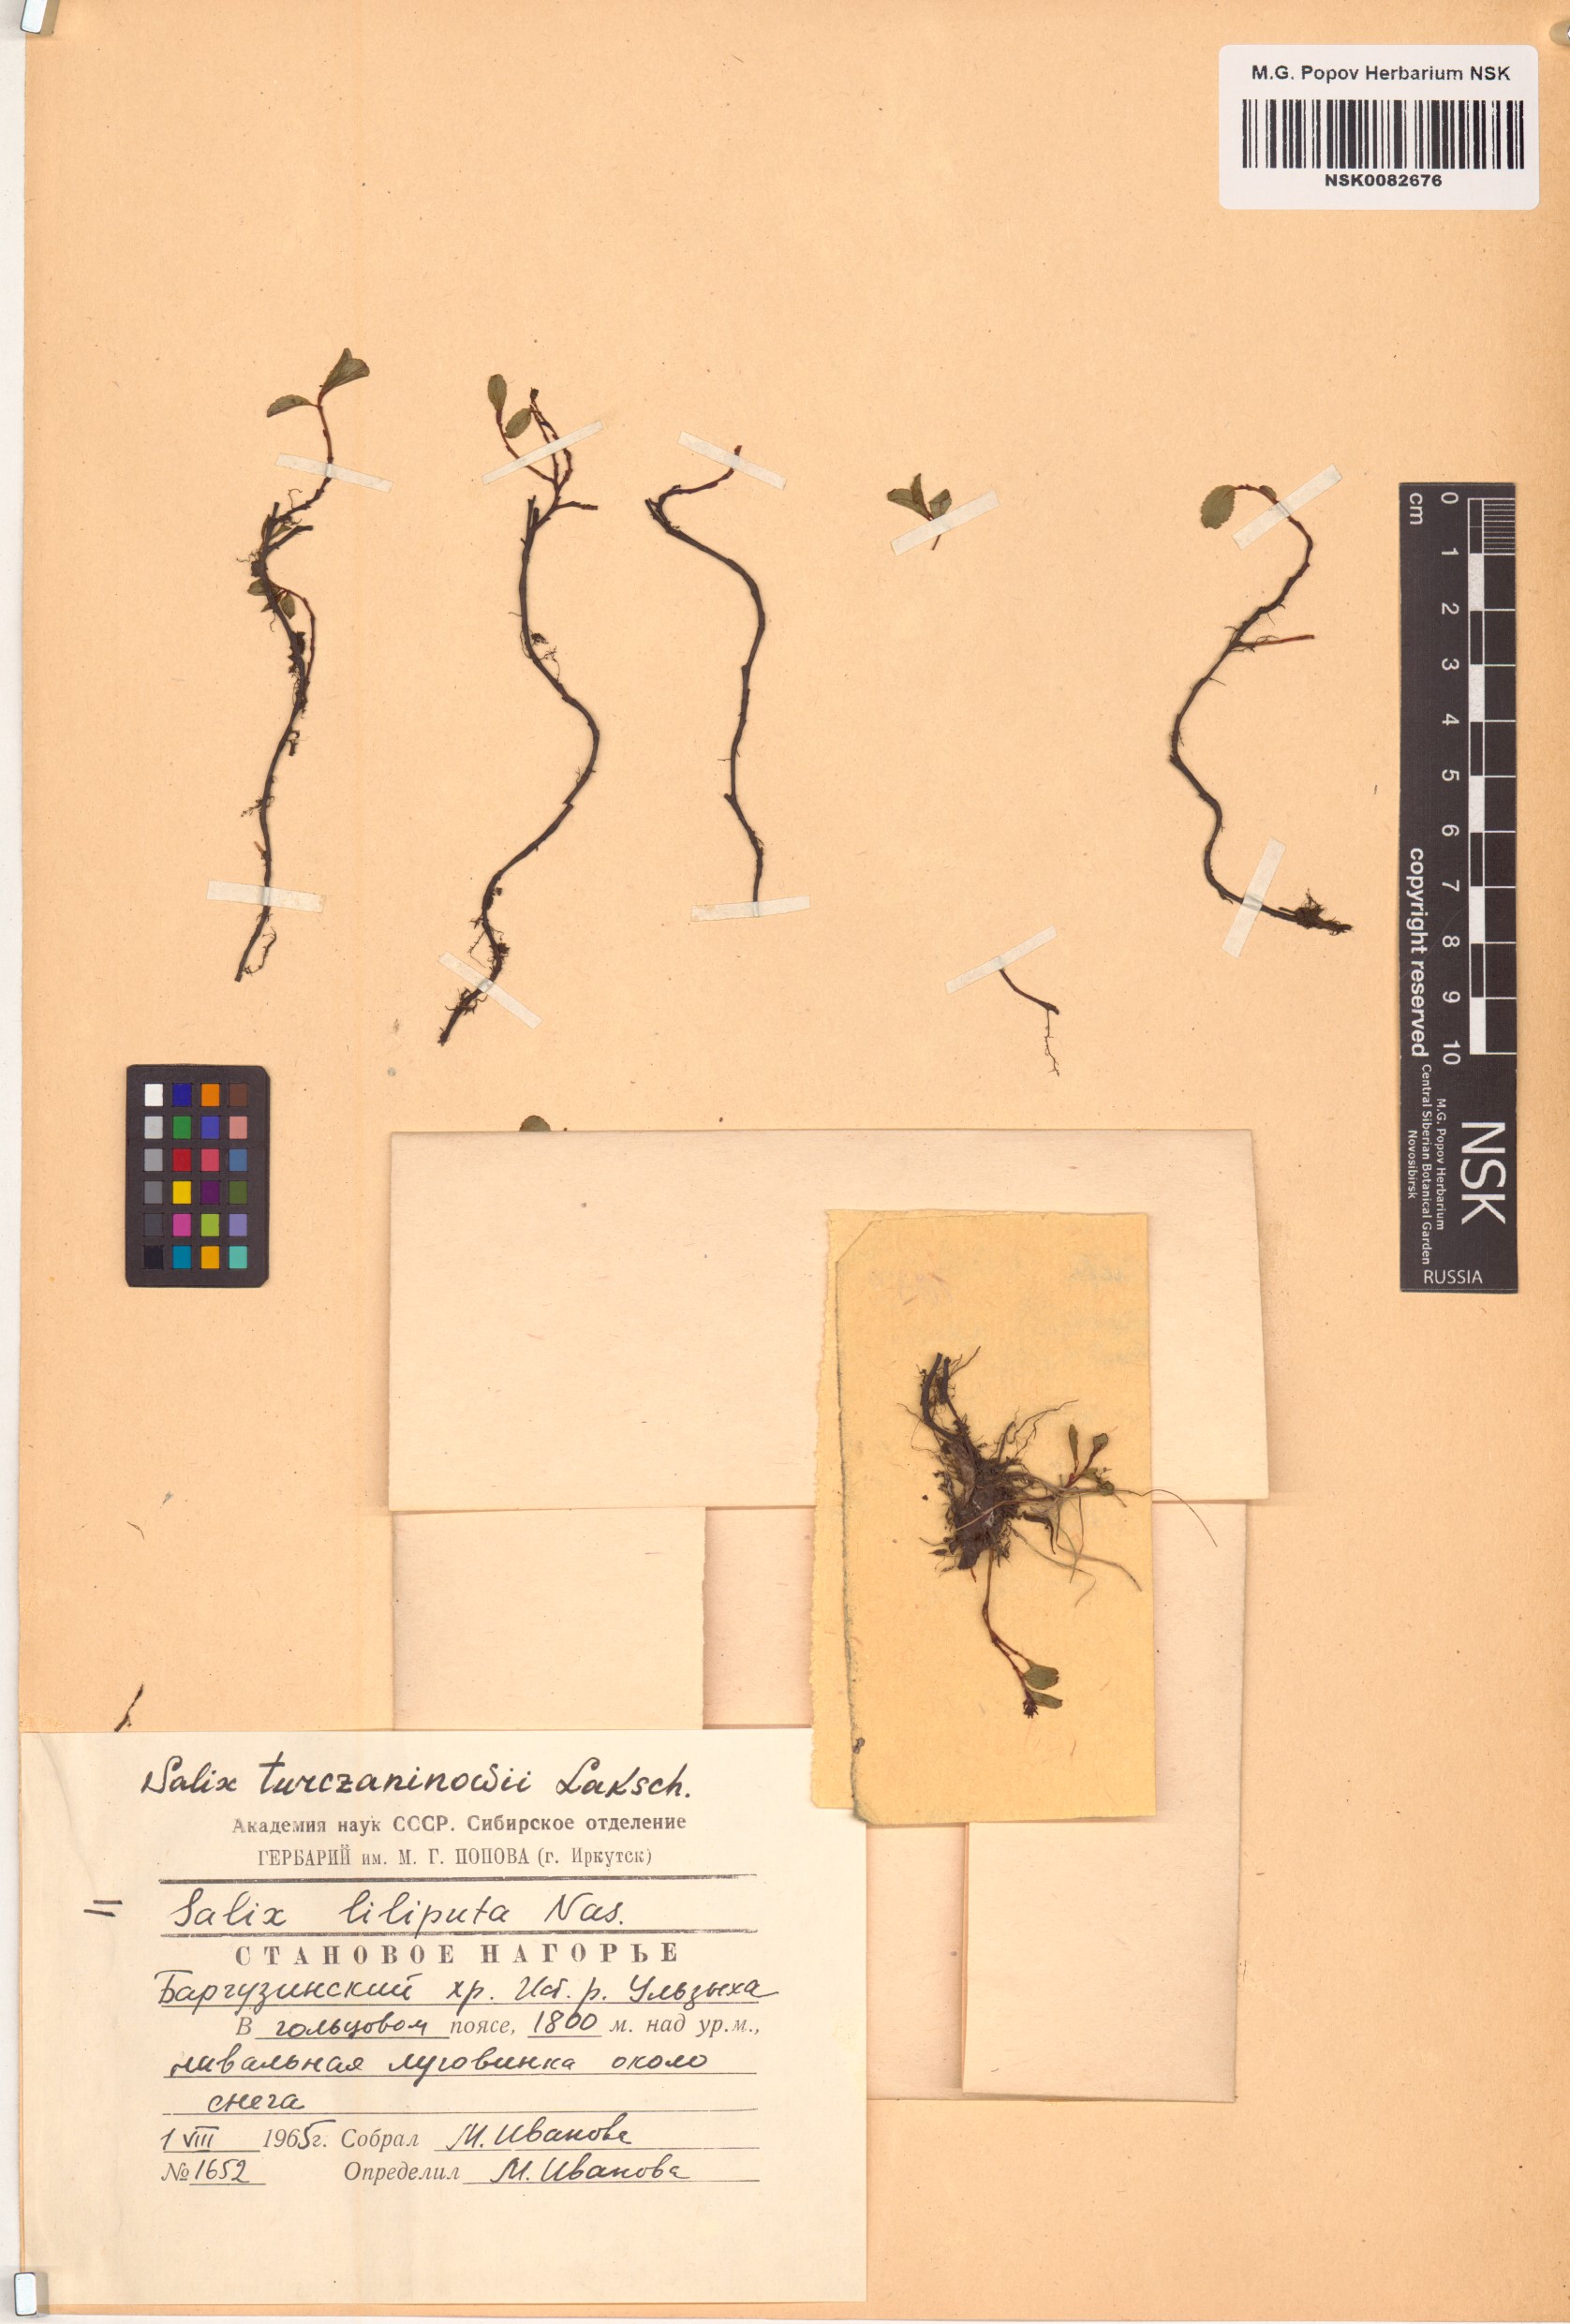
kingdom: Plantae
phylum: Tracheophyta
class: Magnoliopsida
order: Malpighiales
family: Salicaceae
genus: Salix
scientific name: Salix turczaninowii
